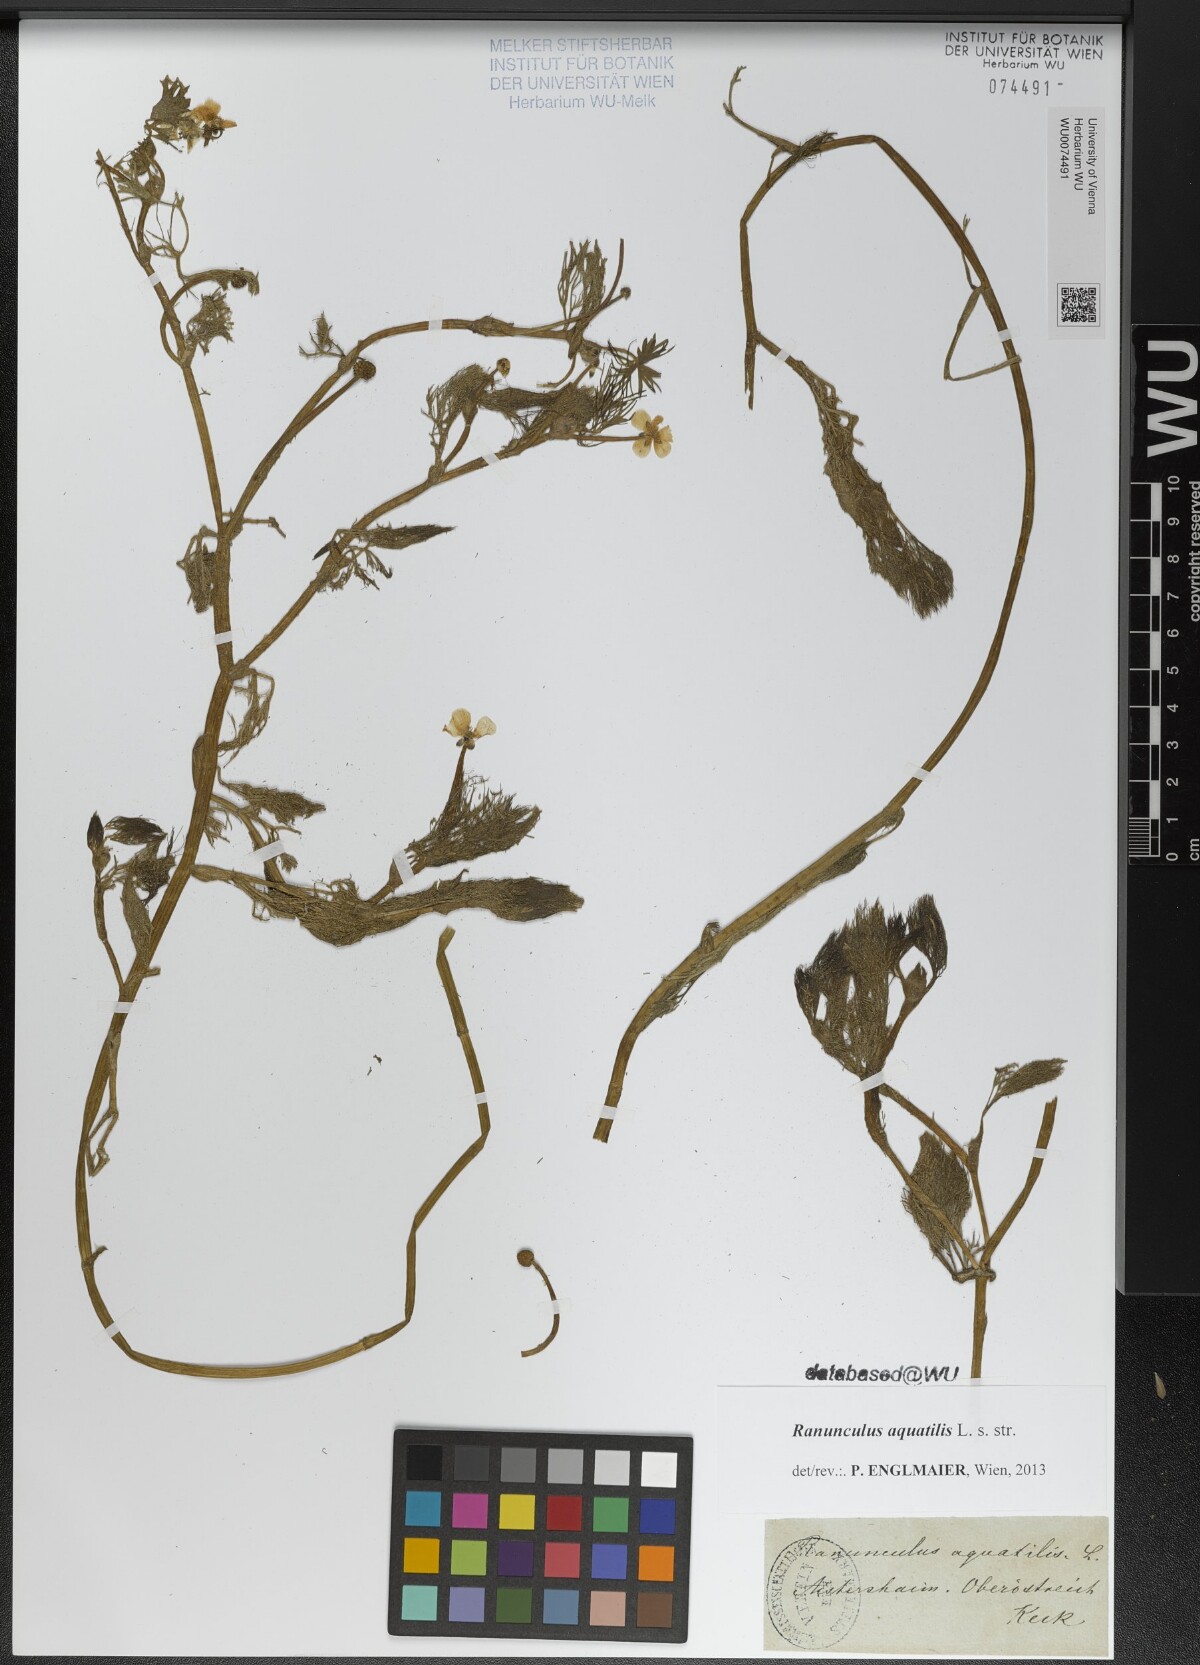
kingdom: Plantae
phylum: Tracheophyta
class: Magnoliopsida
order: Ranunculales
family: Ranunculaceae
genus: Ranunculus
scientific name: Ranunculus aquatilis
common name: Common water-crowfoot
